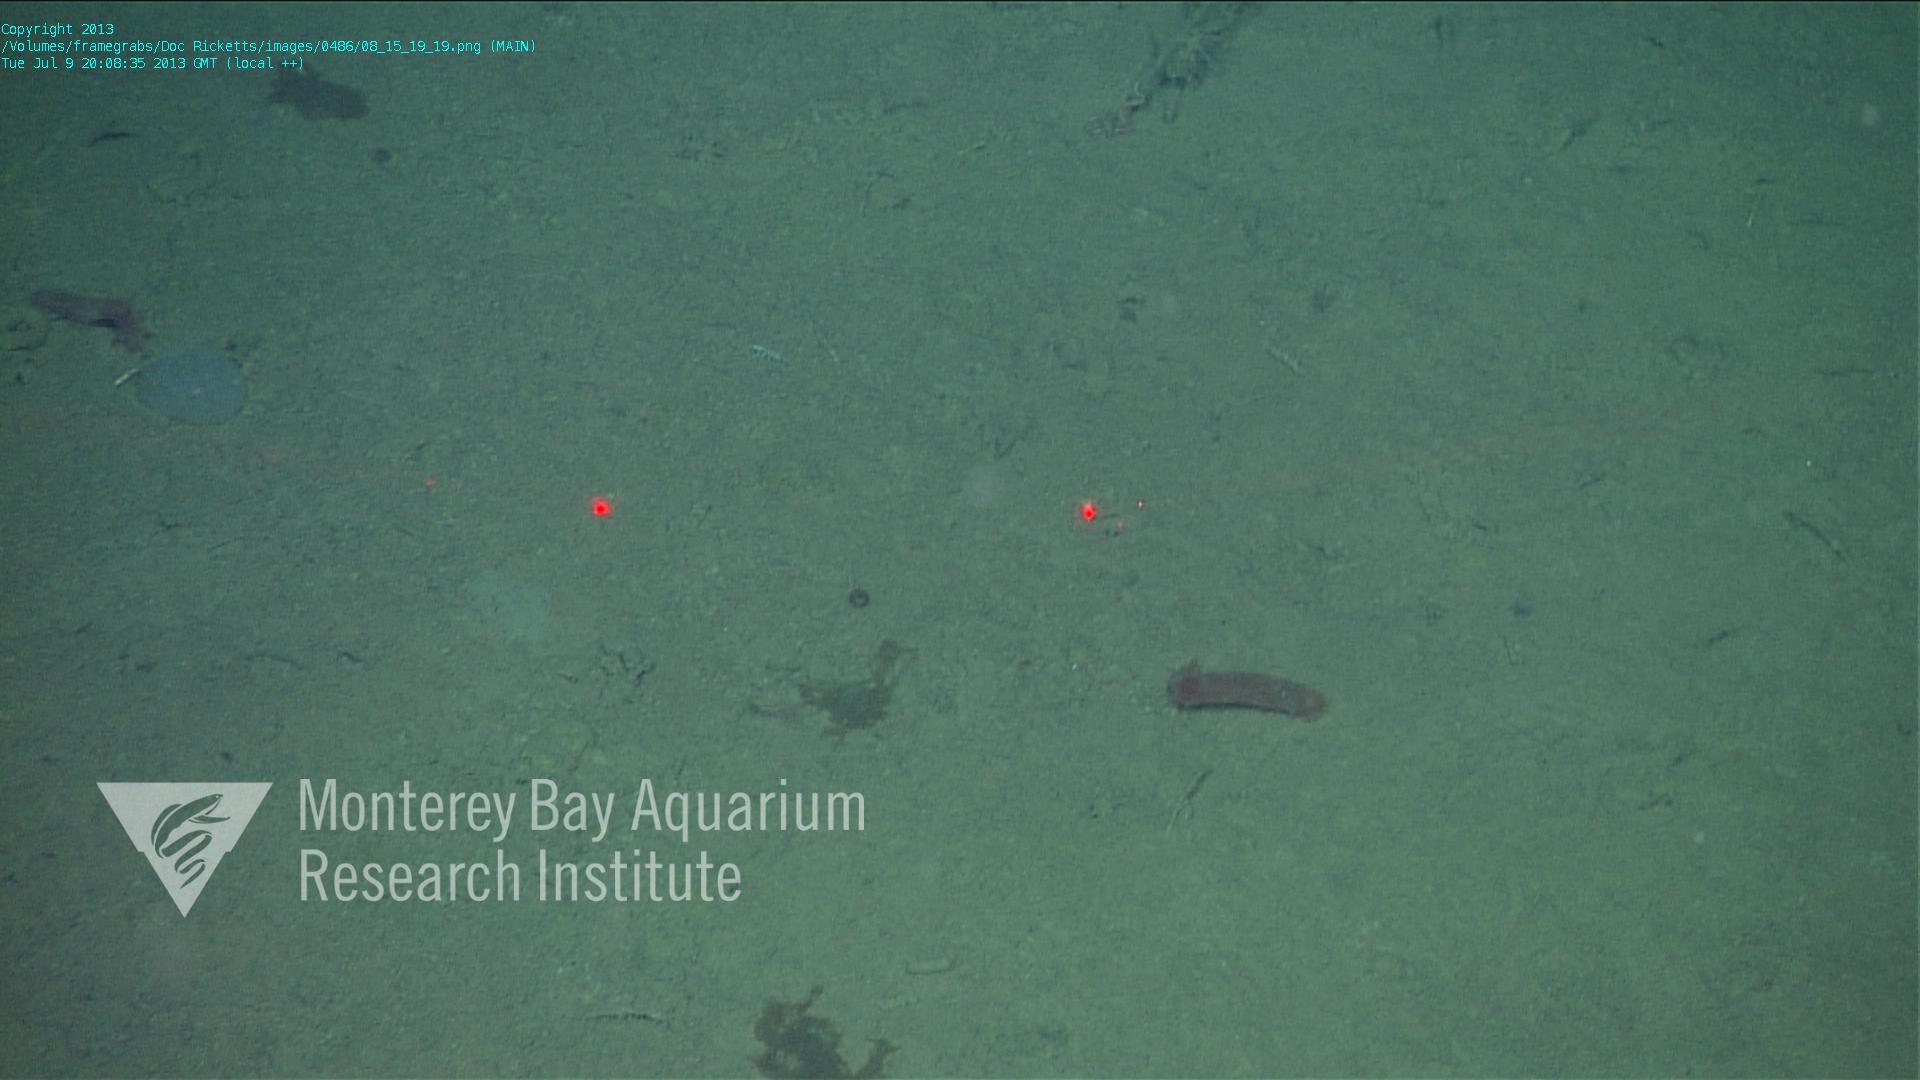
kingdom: Animalia
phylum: Porifera
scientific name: Porifera
